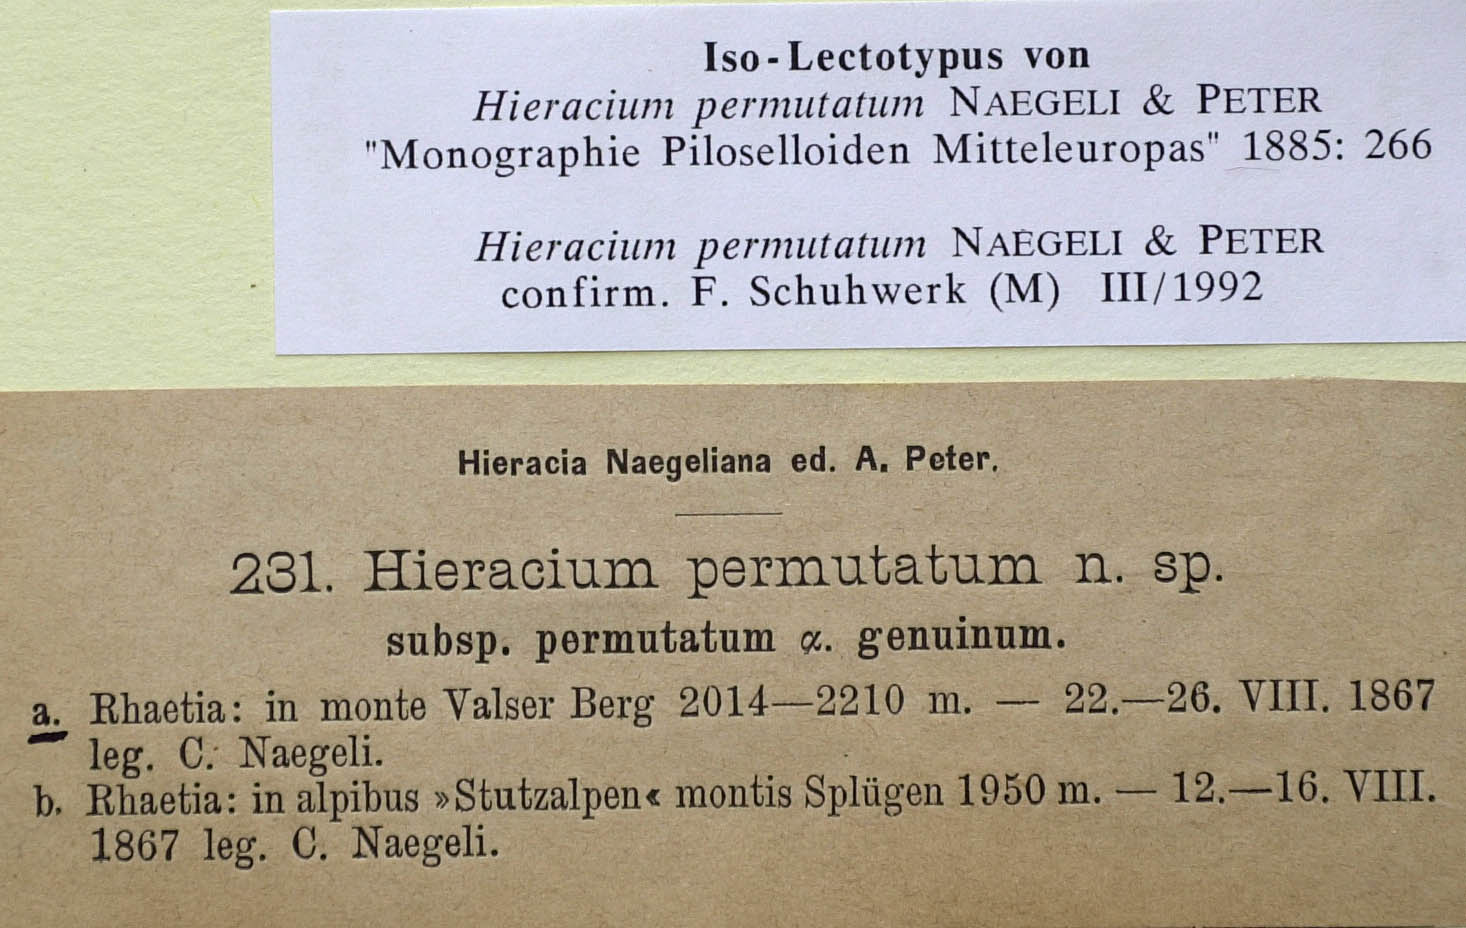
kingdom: Plantae
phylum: Tracheophyta
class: Magnoliopsida
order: Asterales
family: Asteraceae
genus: Pilosella
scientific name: Pilosella permutata
